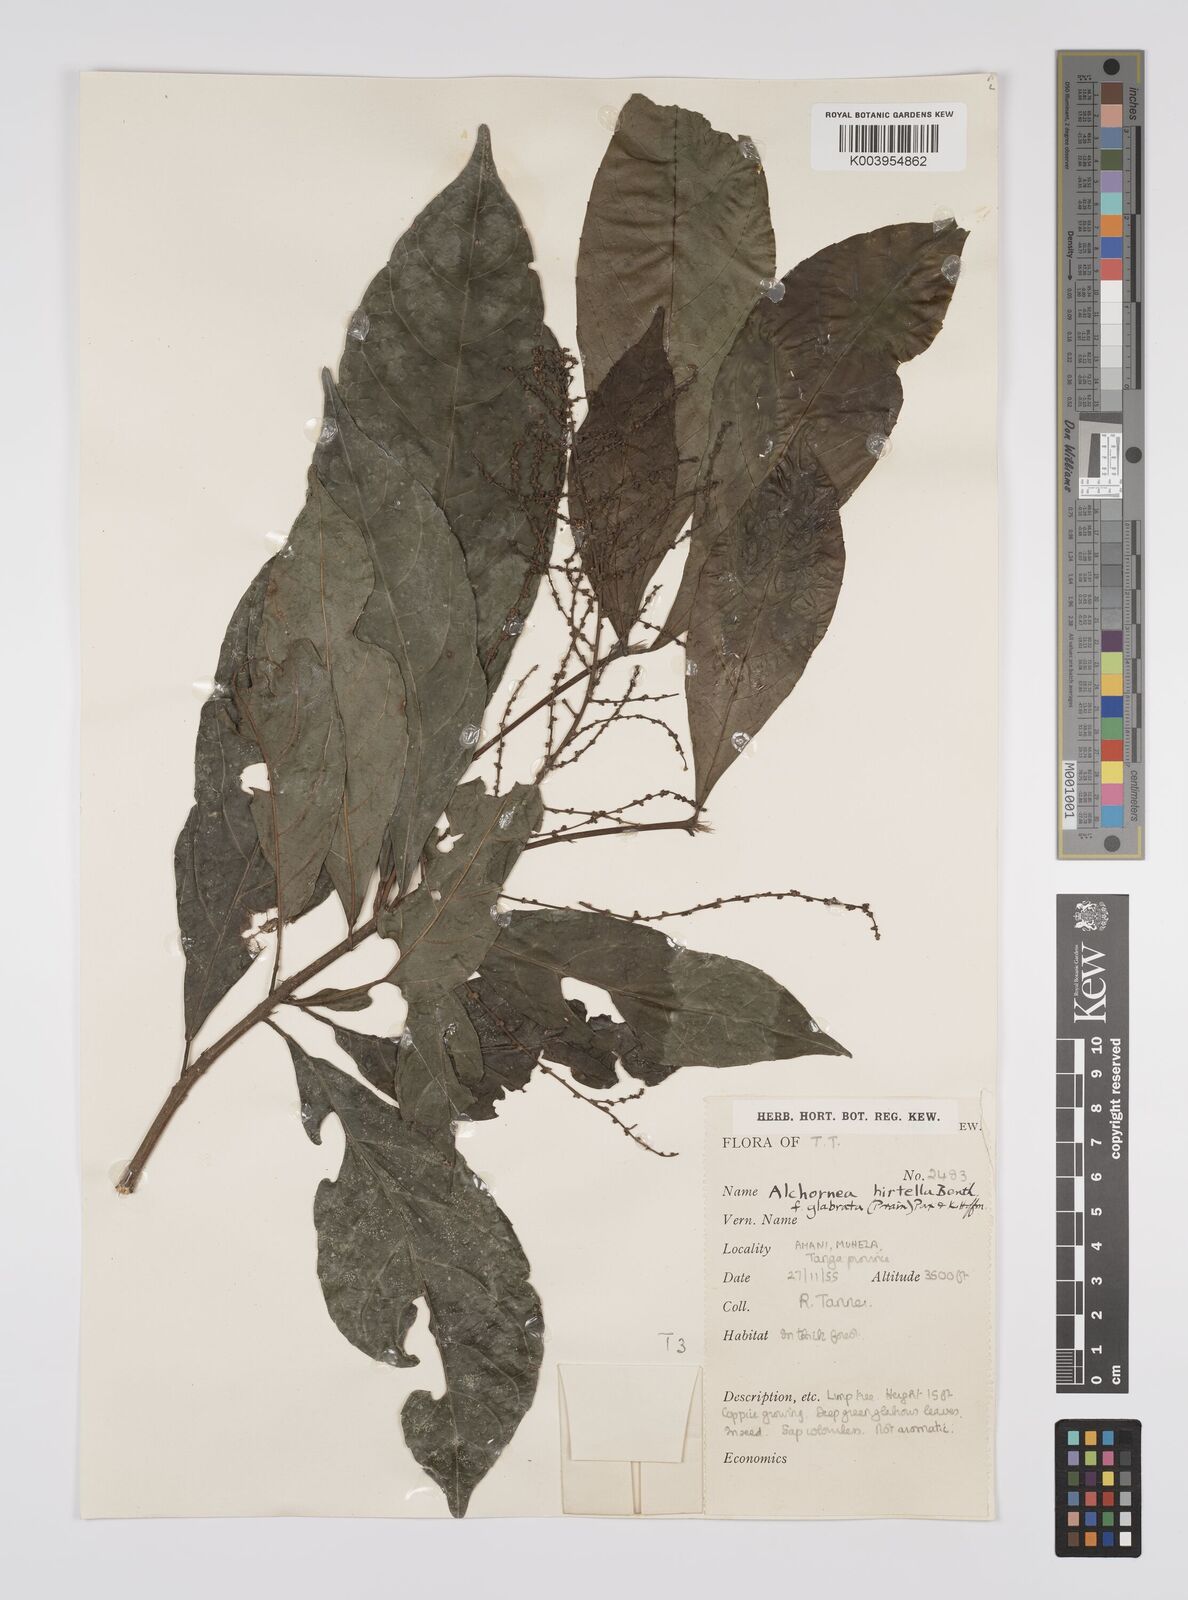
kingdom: Plantae
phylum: Tracheophyta
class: Magnoliopsida
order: Malpighiales
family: Euphorbiaceae
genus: Alchornea
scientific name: Alchornea hirtella
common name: Forest bead-string
